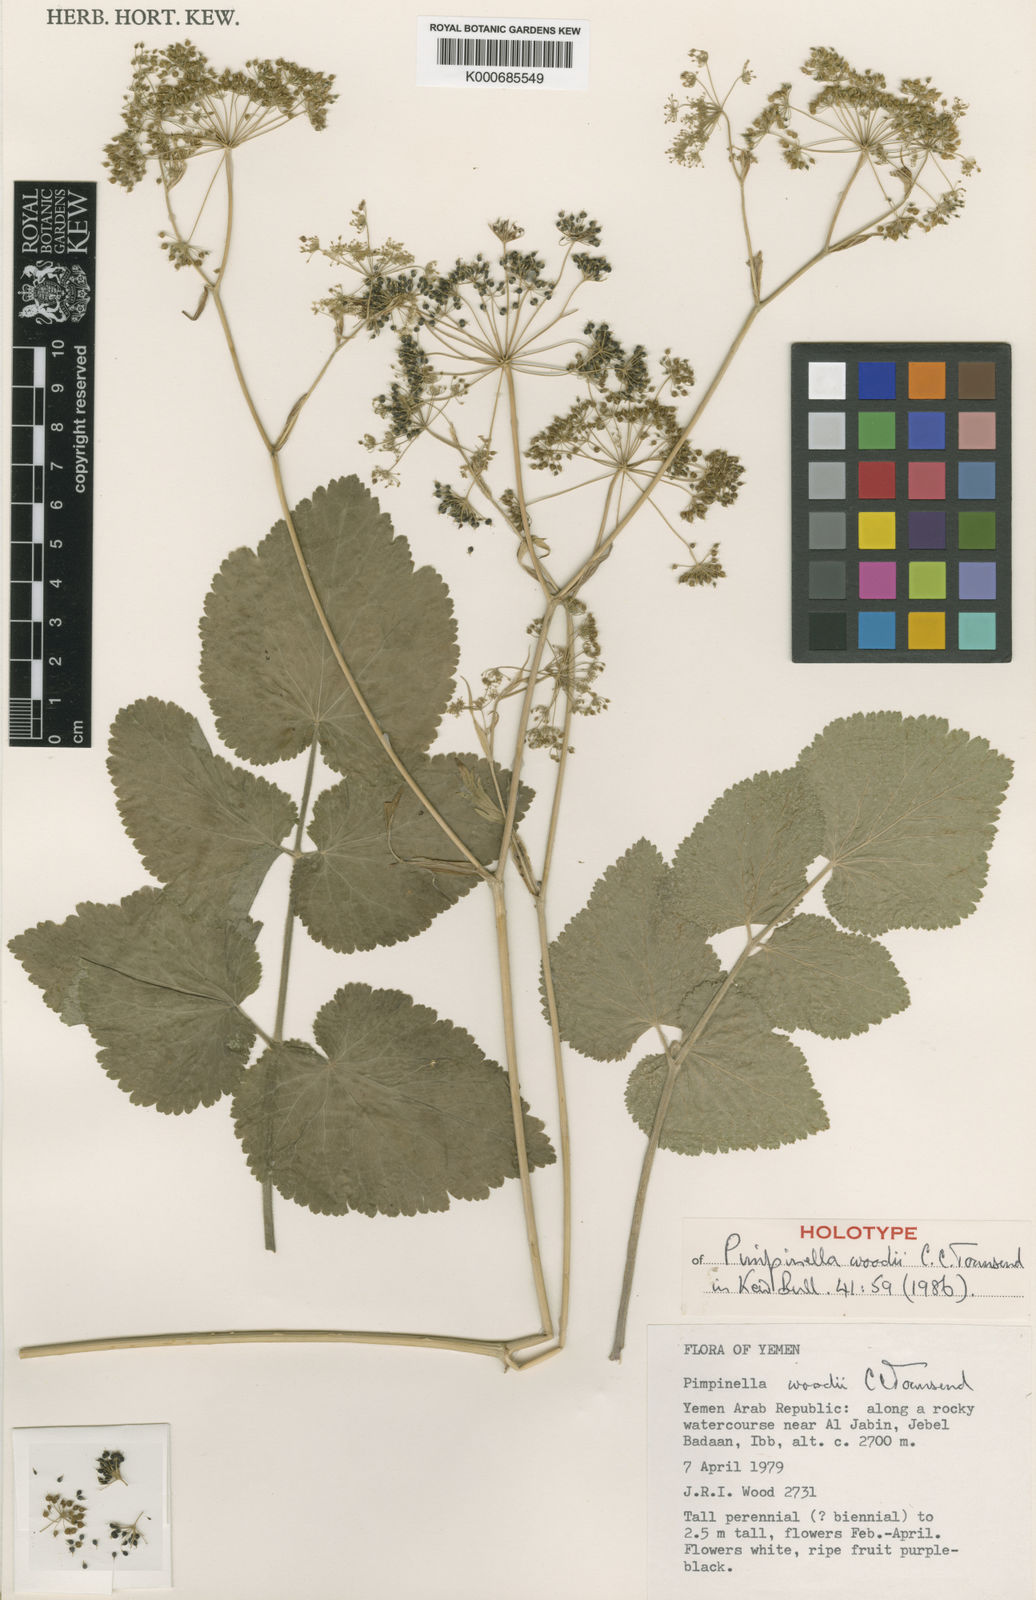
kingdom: Plantae
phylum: Tracheophyta
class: Magnoliopsida
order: Apiales
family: Apiaceae
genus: Pimpinella
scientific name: Pimpinella woodii
